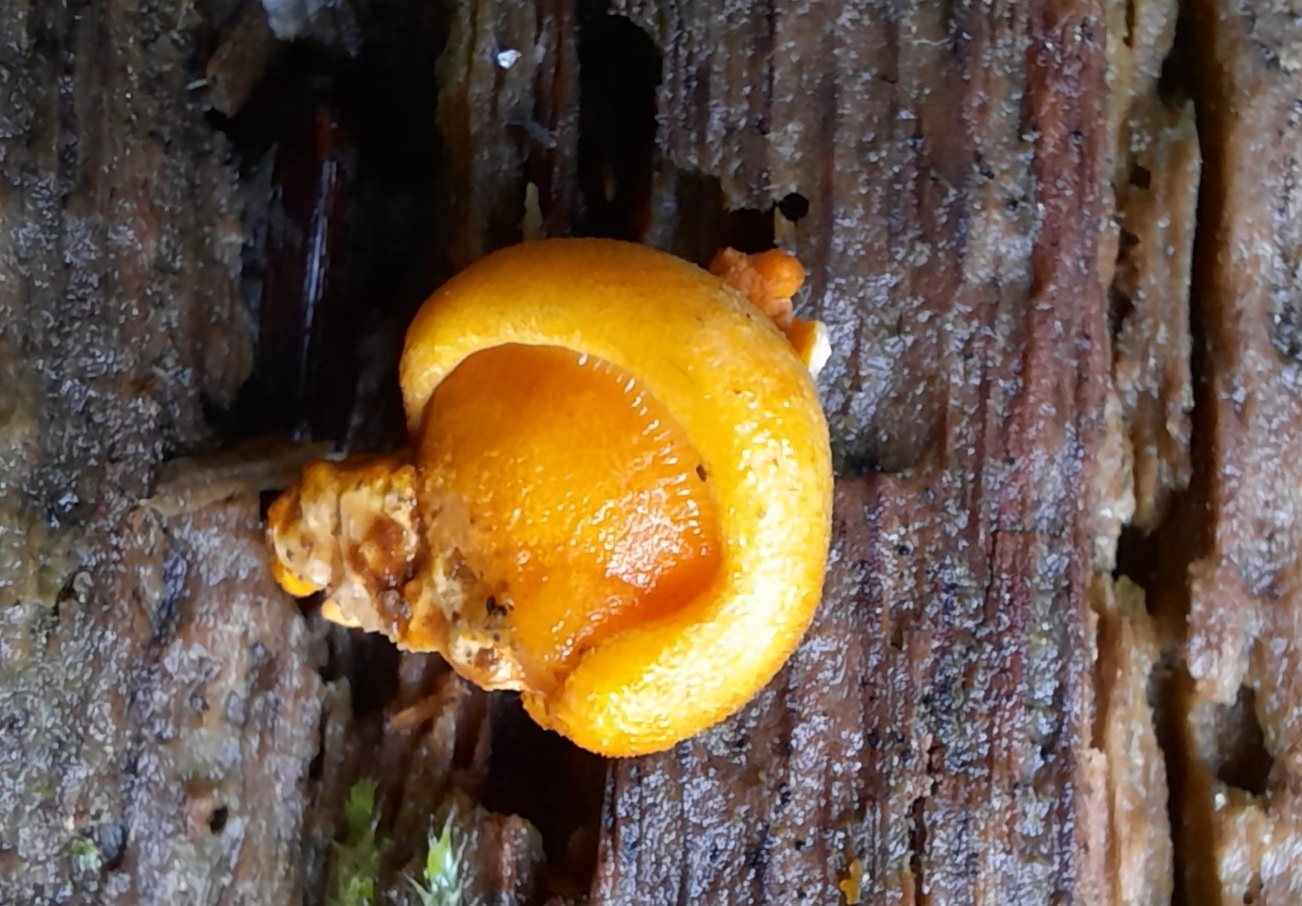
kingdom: Fungi
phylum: Basidiomycota
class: Agaricomycetes
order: Agaricales
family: Sarcomyxaceae
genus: Sarcomyxa
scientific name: Sarcomyxa serotina
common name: gummihat
